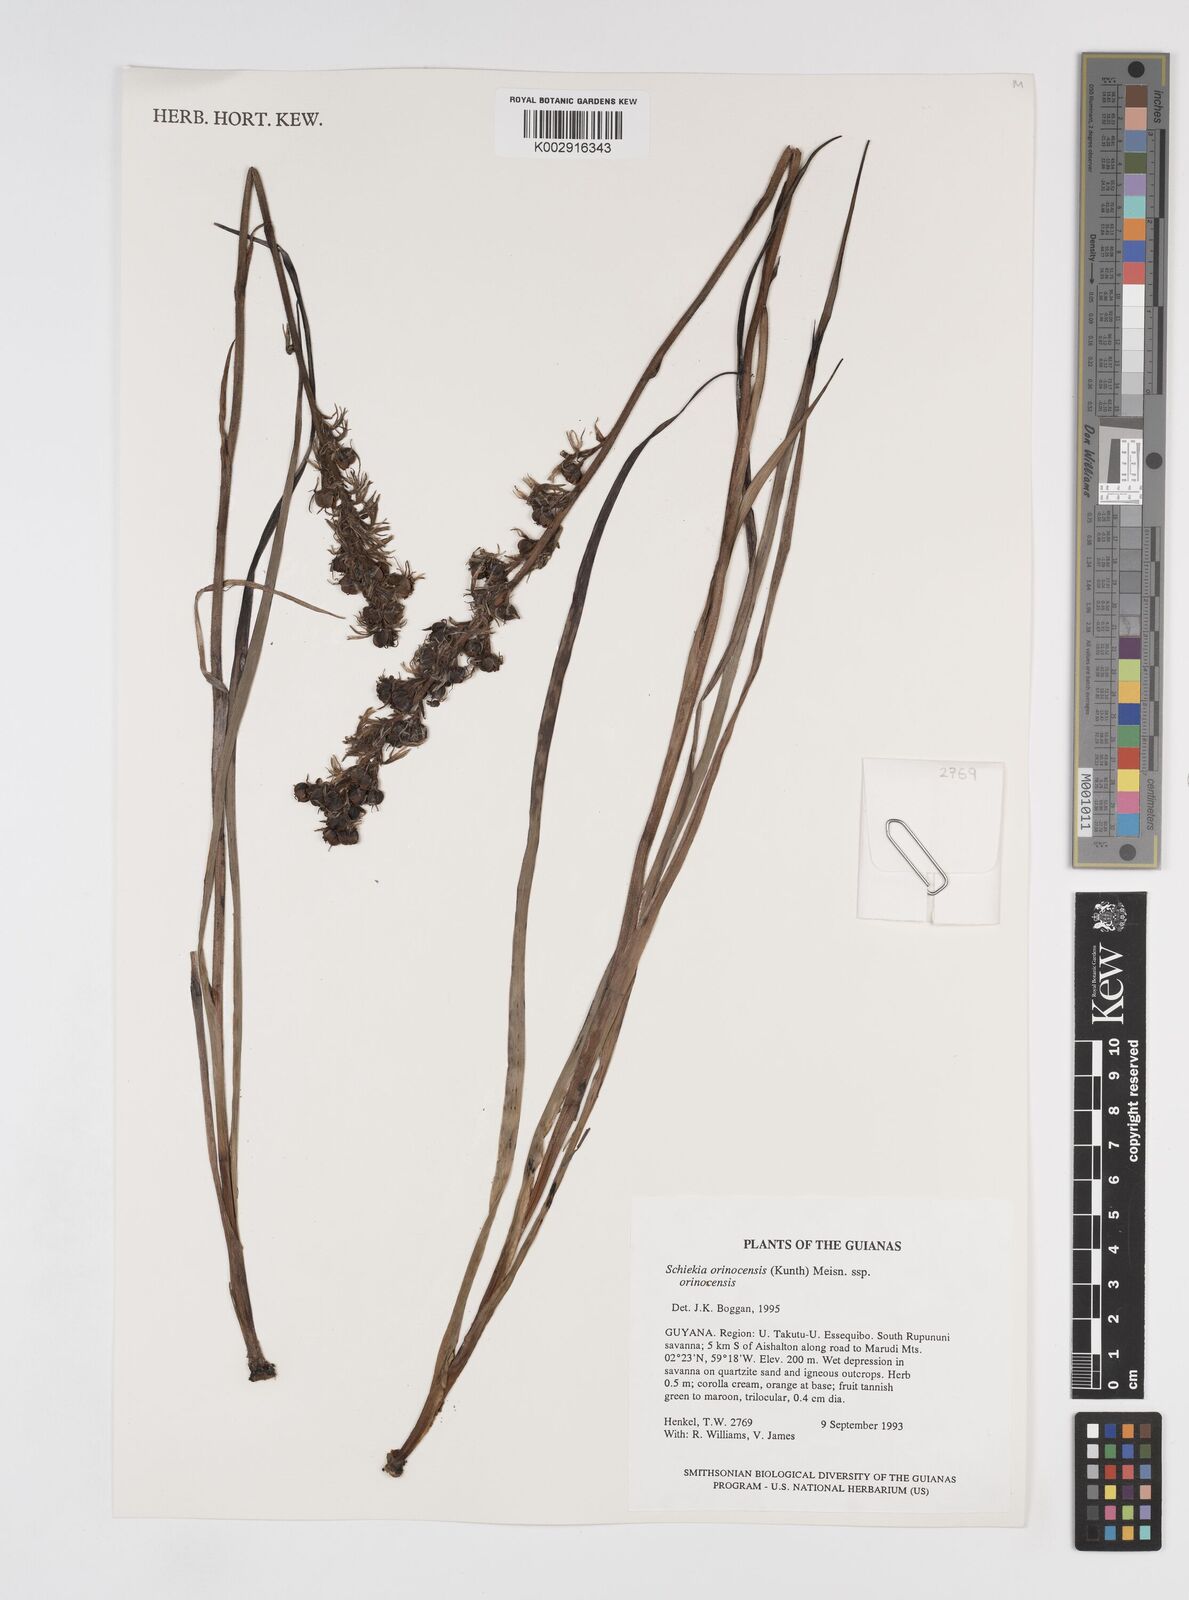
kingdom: Plantae
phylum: Tracheophyta
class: Liliopsida
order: Commelinales
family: Haemodoraceae
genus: Schiekia
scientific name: Schiekia orinocensis
